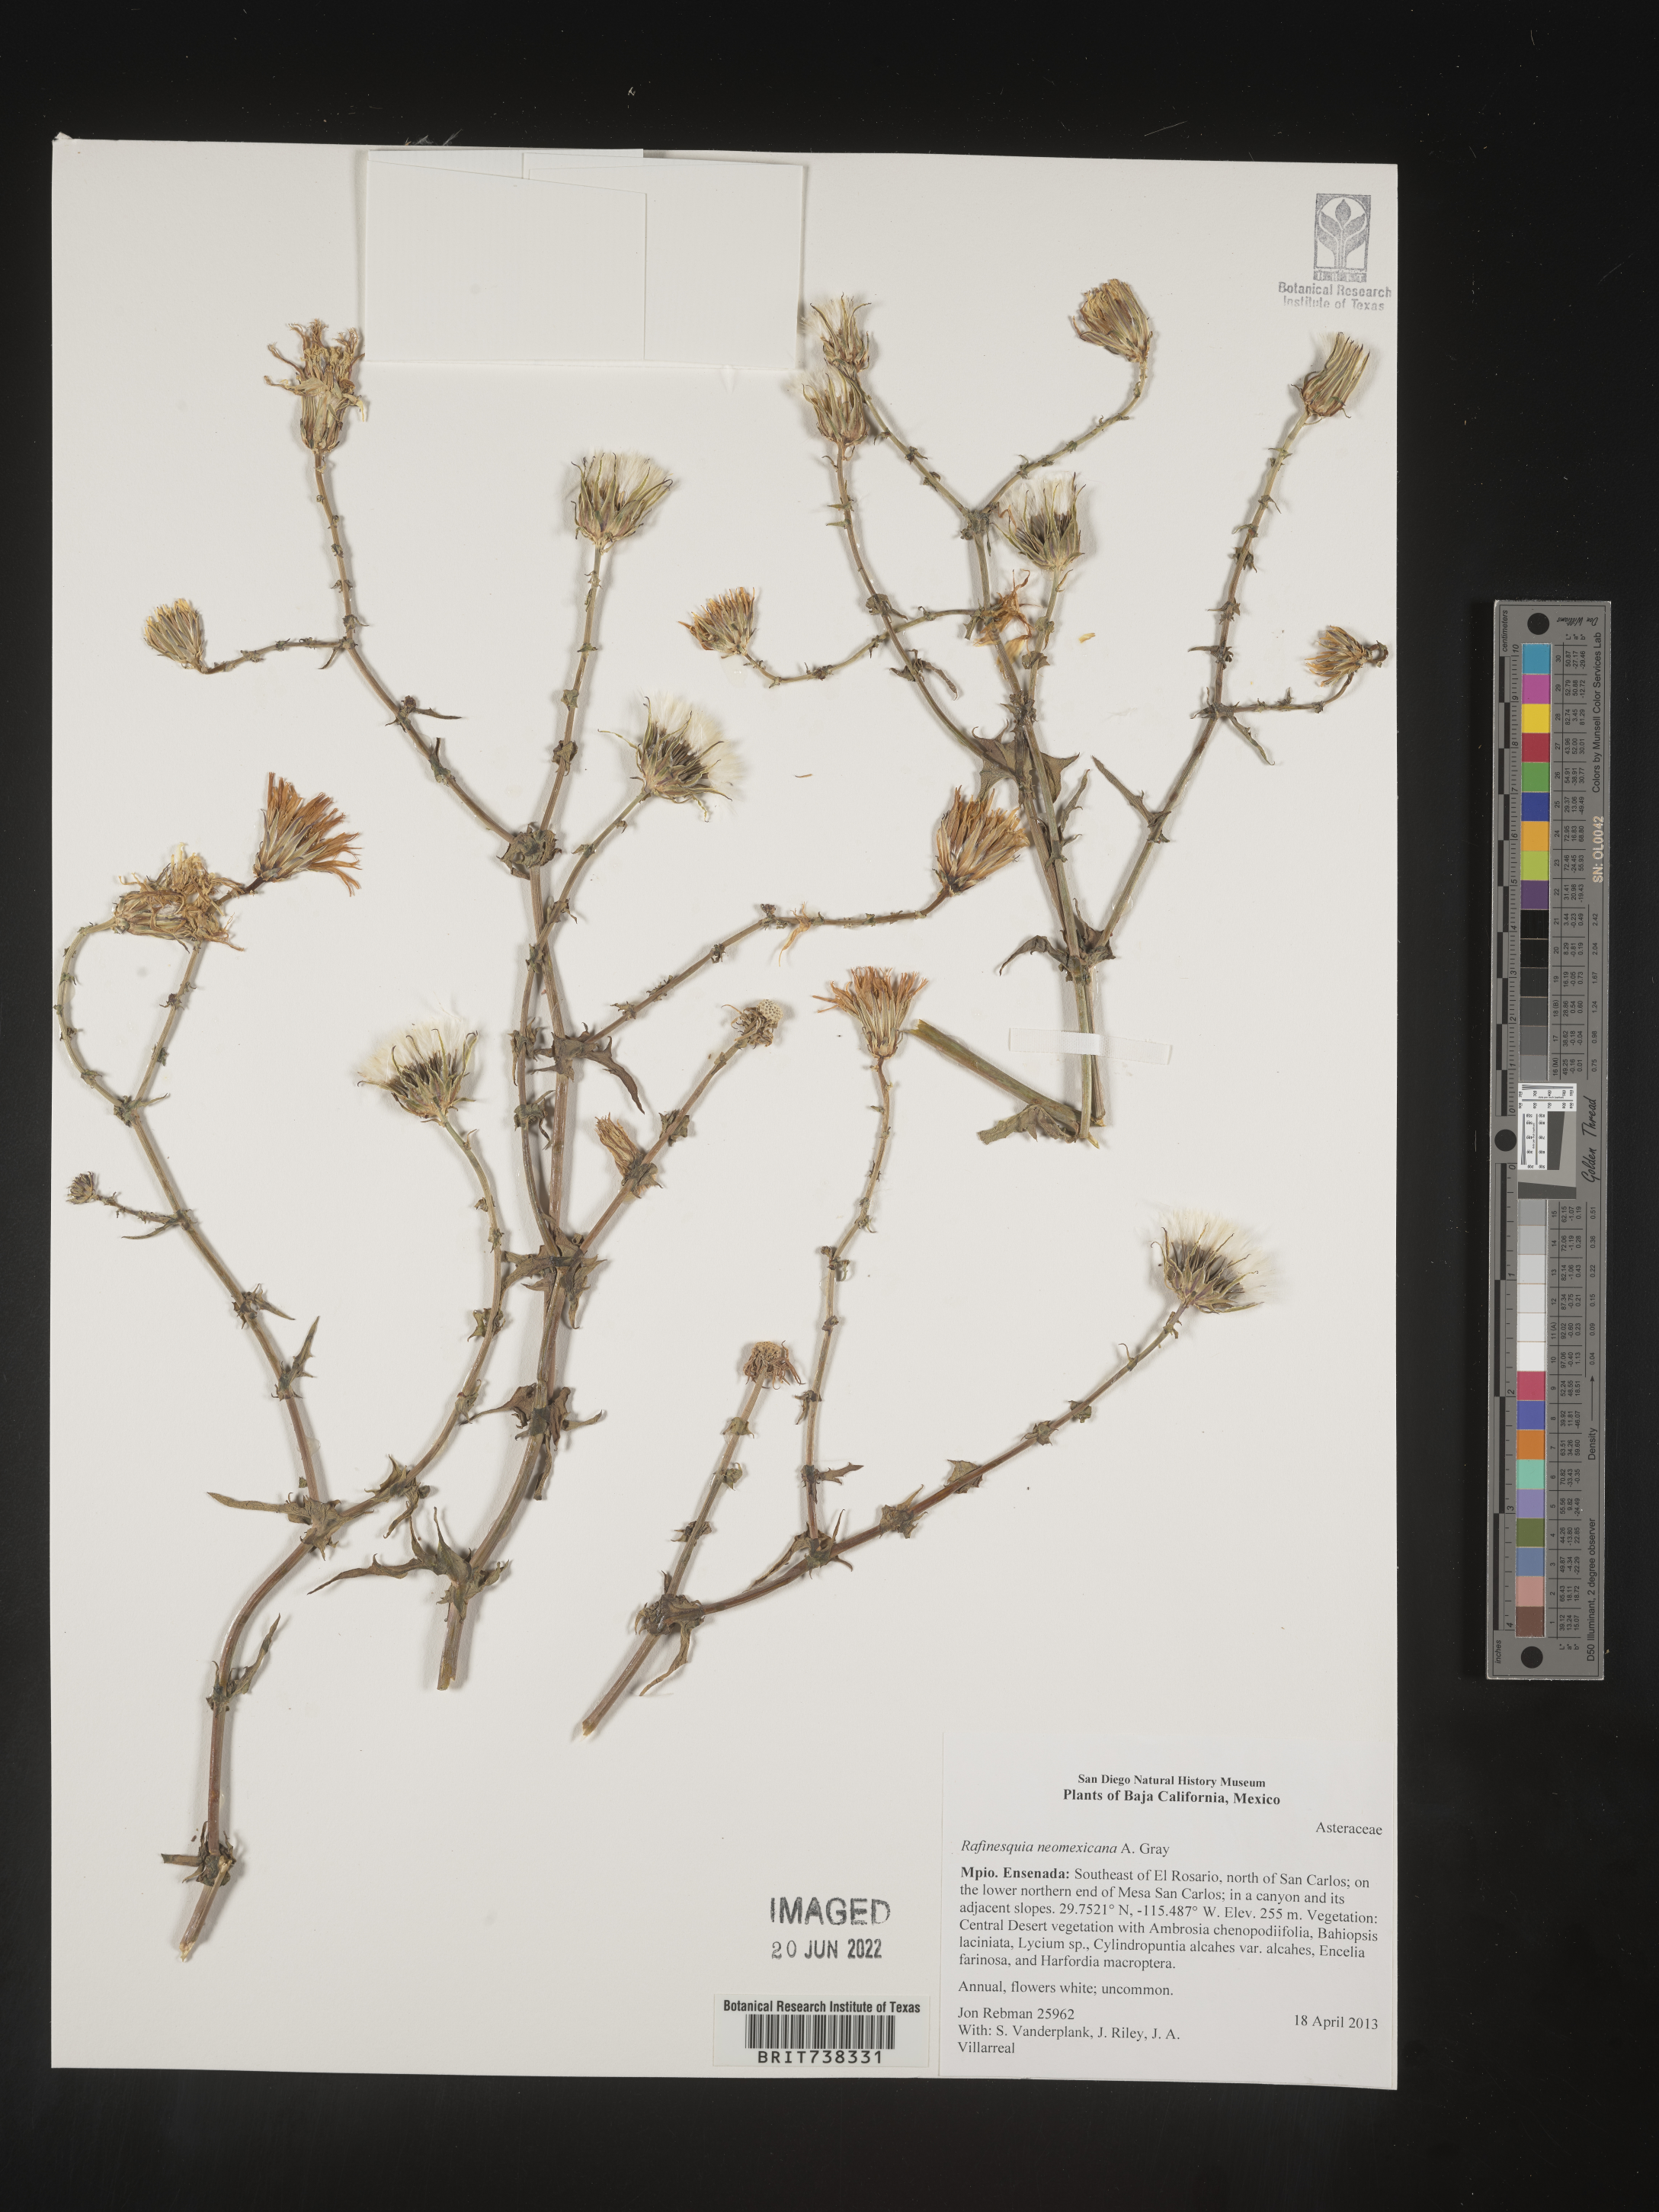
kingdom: Plantae
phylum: Tracheophyta
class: Magnoliopsida
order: Asterales
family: Asteraceae
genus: Rafinesquia
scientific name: Rafinesquia
